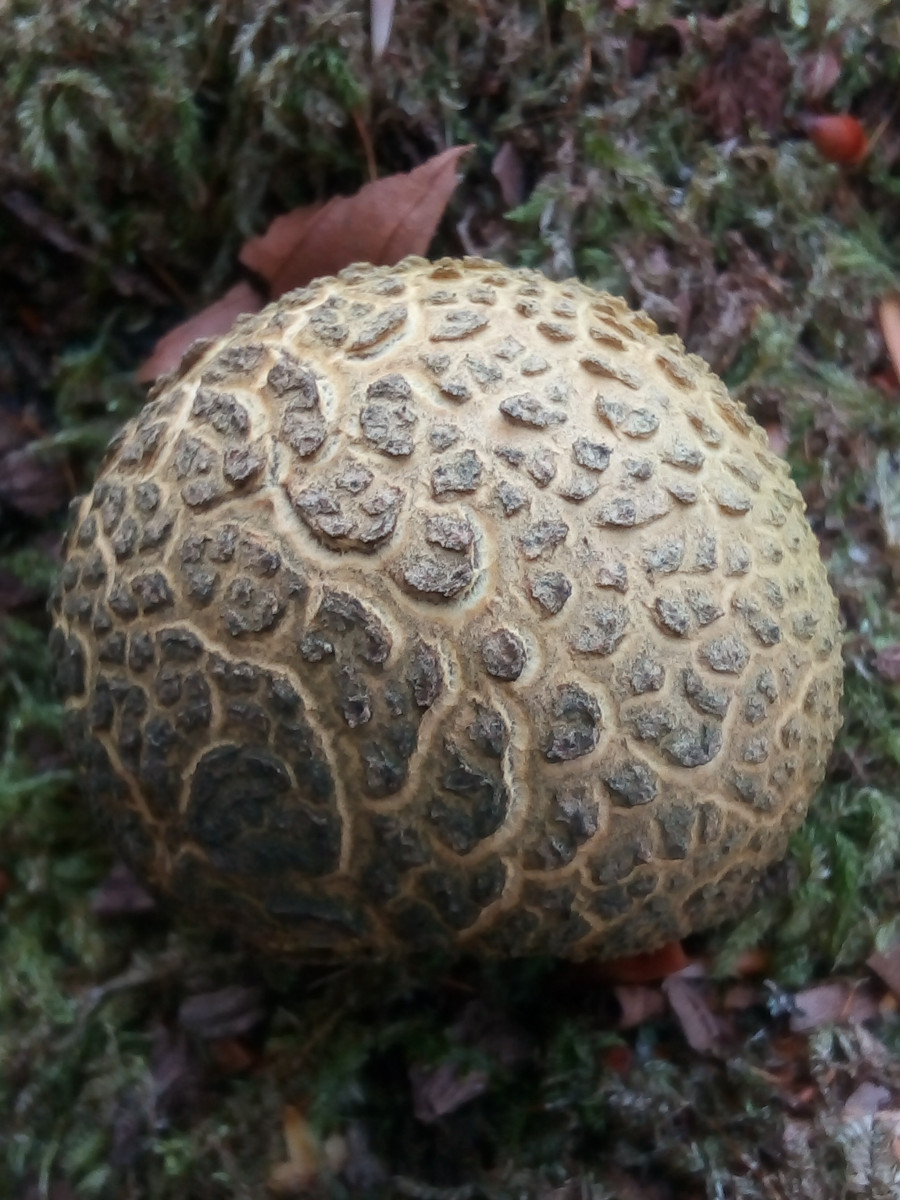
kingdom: Fungi
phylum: Basidiomycota
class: Agaricomycetes
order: Boletales
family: Sclerodermataceae
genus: Scleroderma
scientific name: Scleroderma citrinum
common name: almindelig bruskbold
